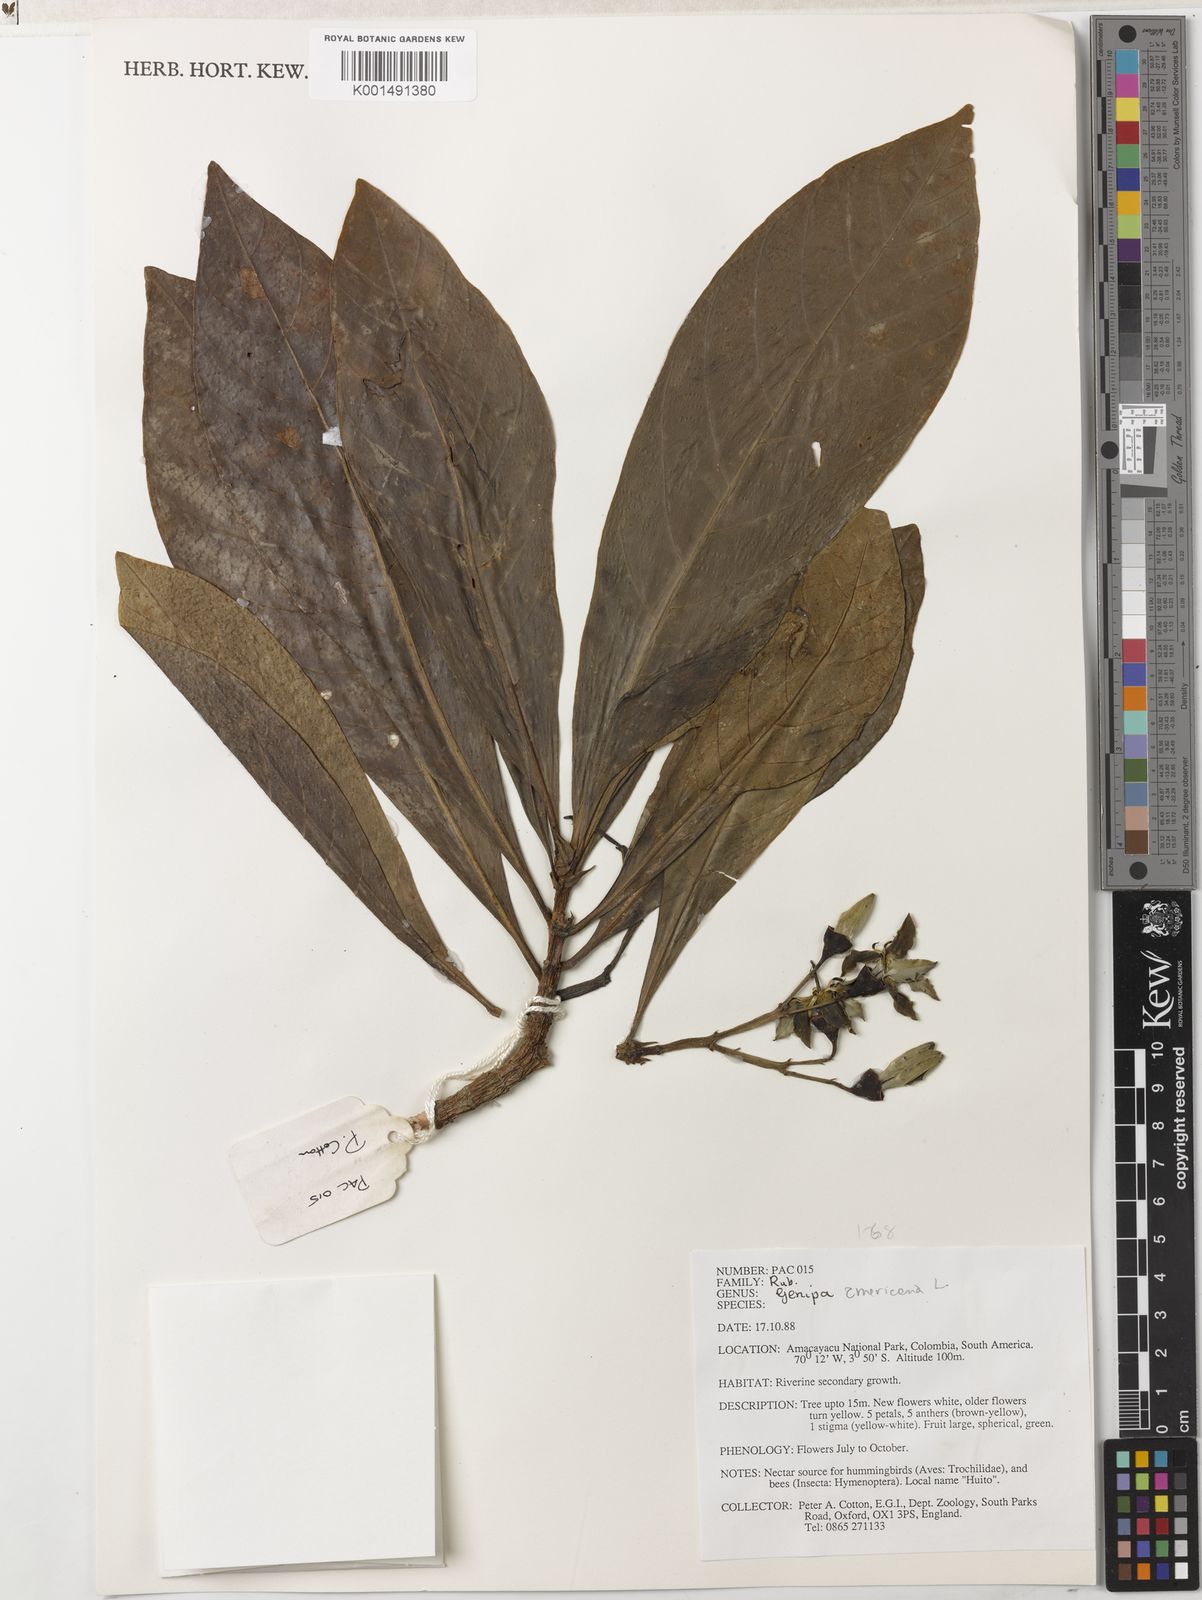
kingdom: Plantae
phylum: Tracheophyta
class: Magnoliopsida
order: Gentianales
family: Rubiaceae
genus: Genipa
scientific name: Genipa americana
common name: Genipap
